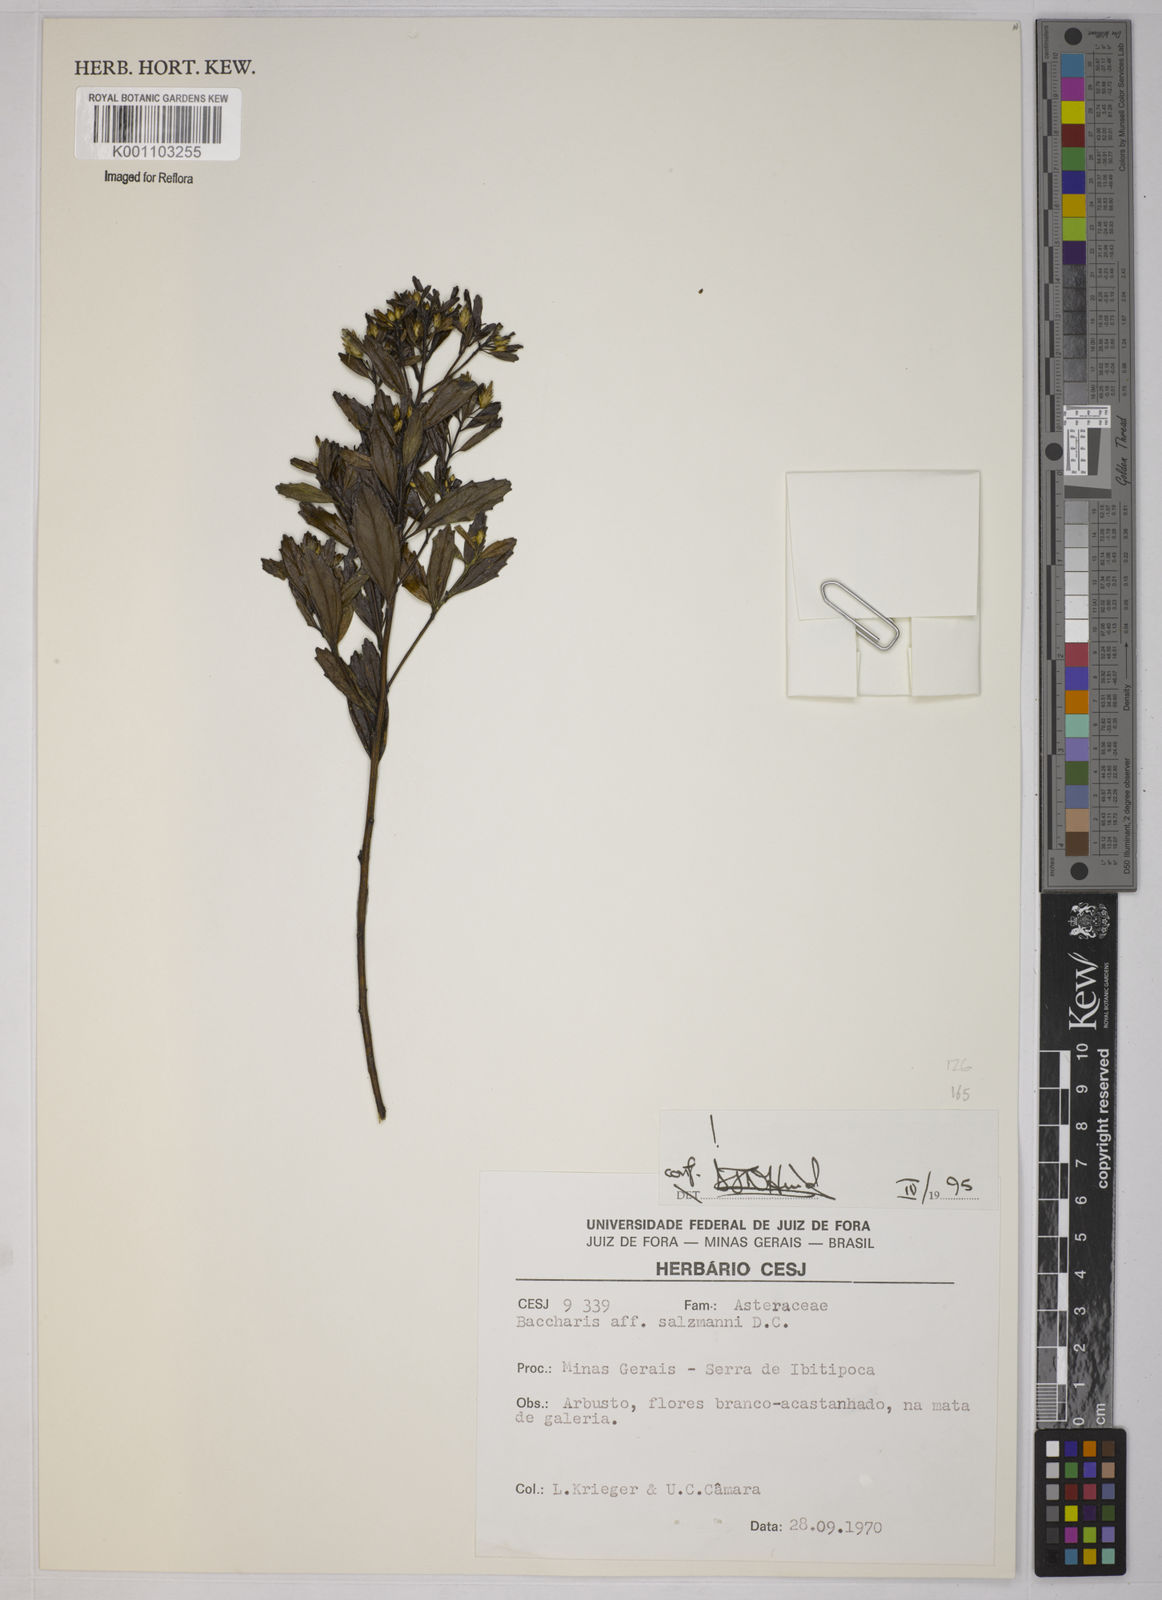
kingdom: Plantae
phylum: Tracheophyta
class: Magnoliopsida
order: Asterales
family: Asteraceae
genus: Baccharis
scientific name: Baccharis retusa
